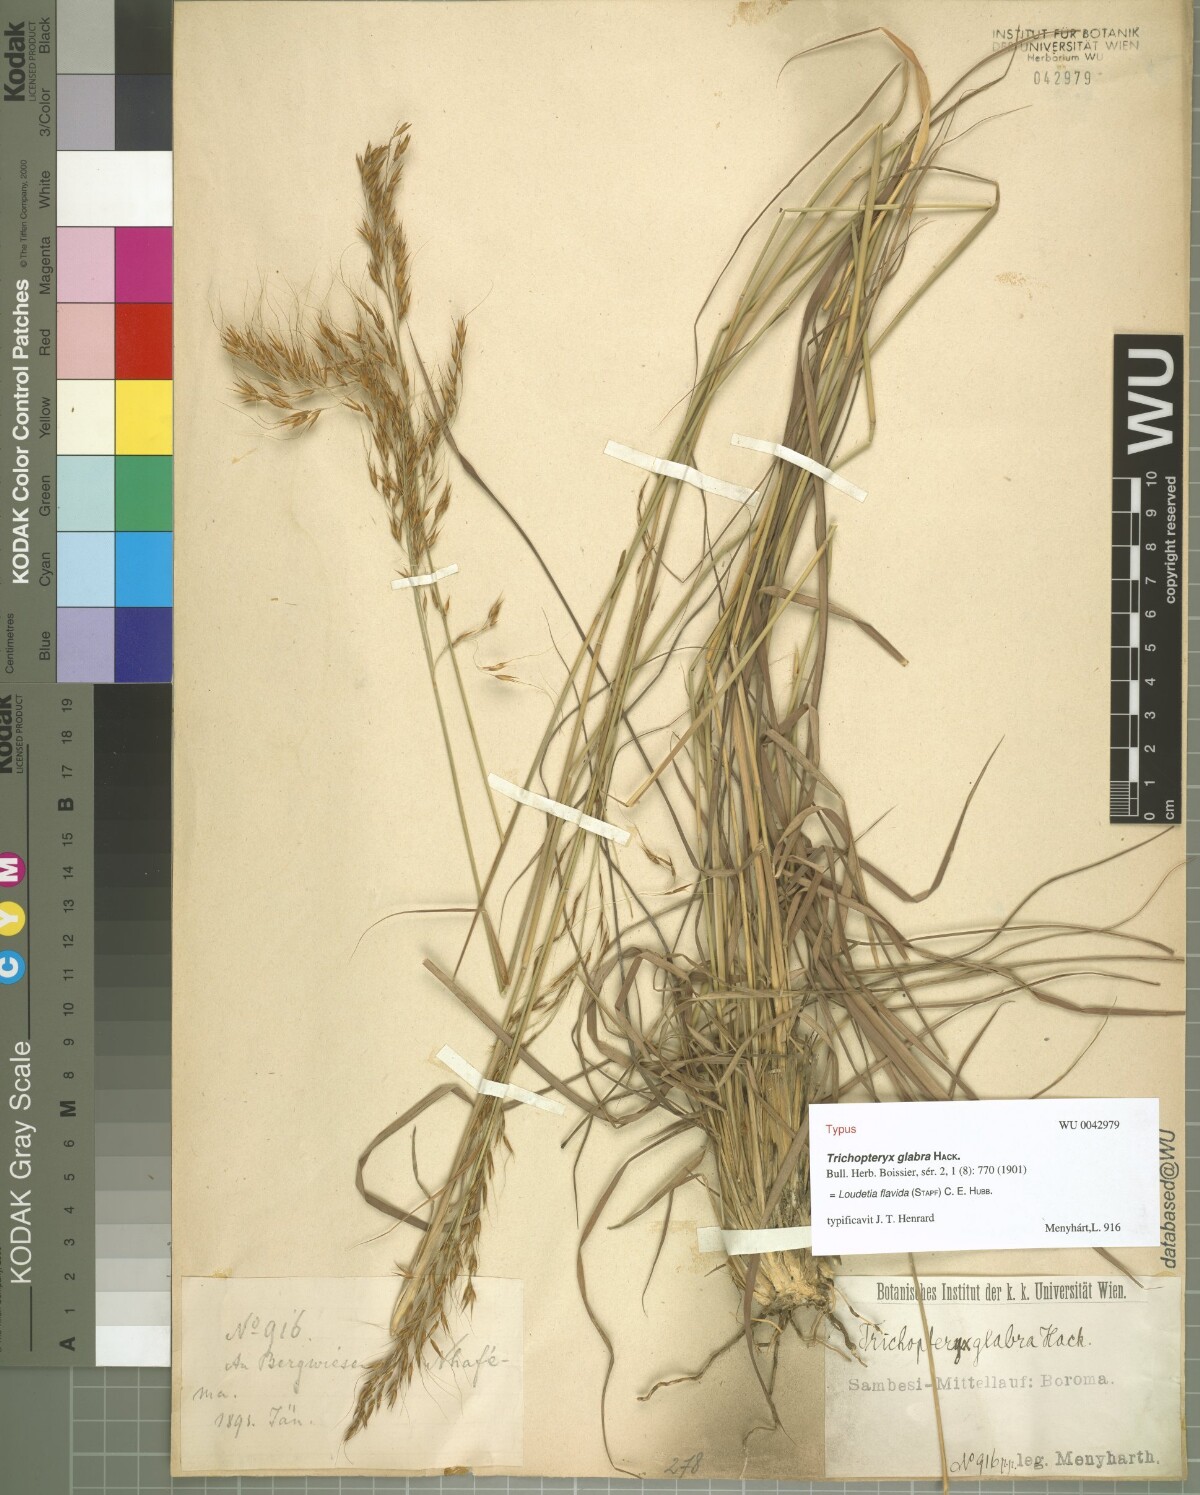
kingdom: Plantae
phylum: Tracheophyta
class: Liliopsida
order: Poales
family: Poaceae
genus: Loudetia
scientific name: Loudetia flavida
